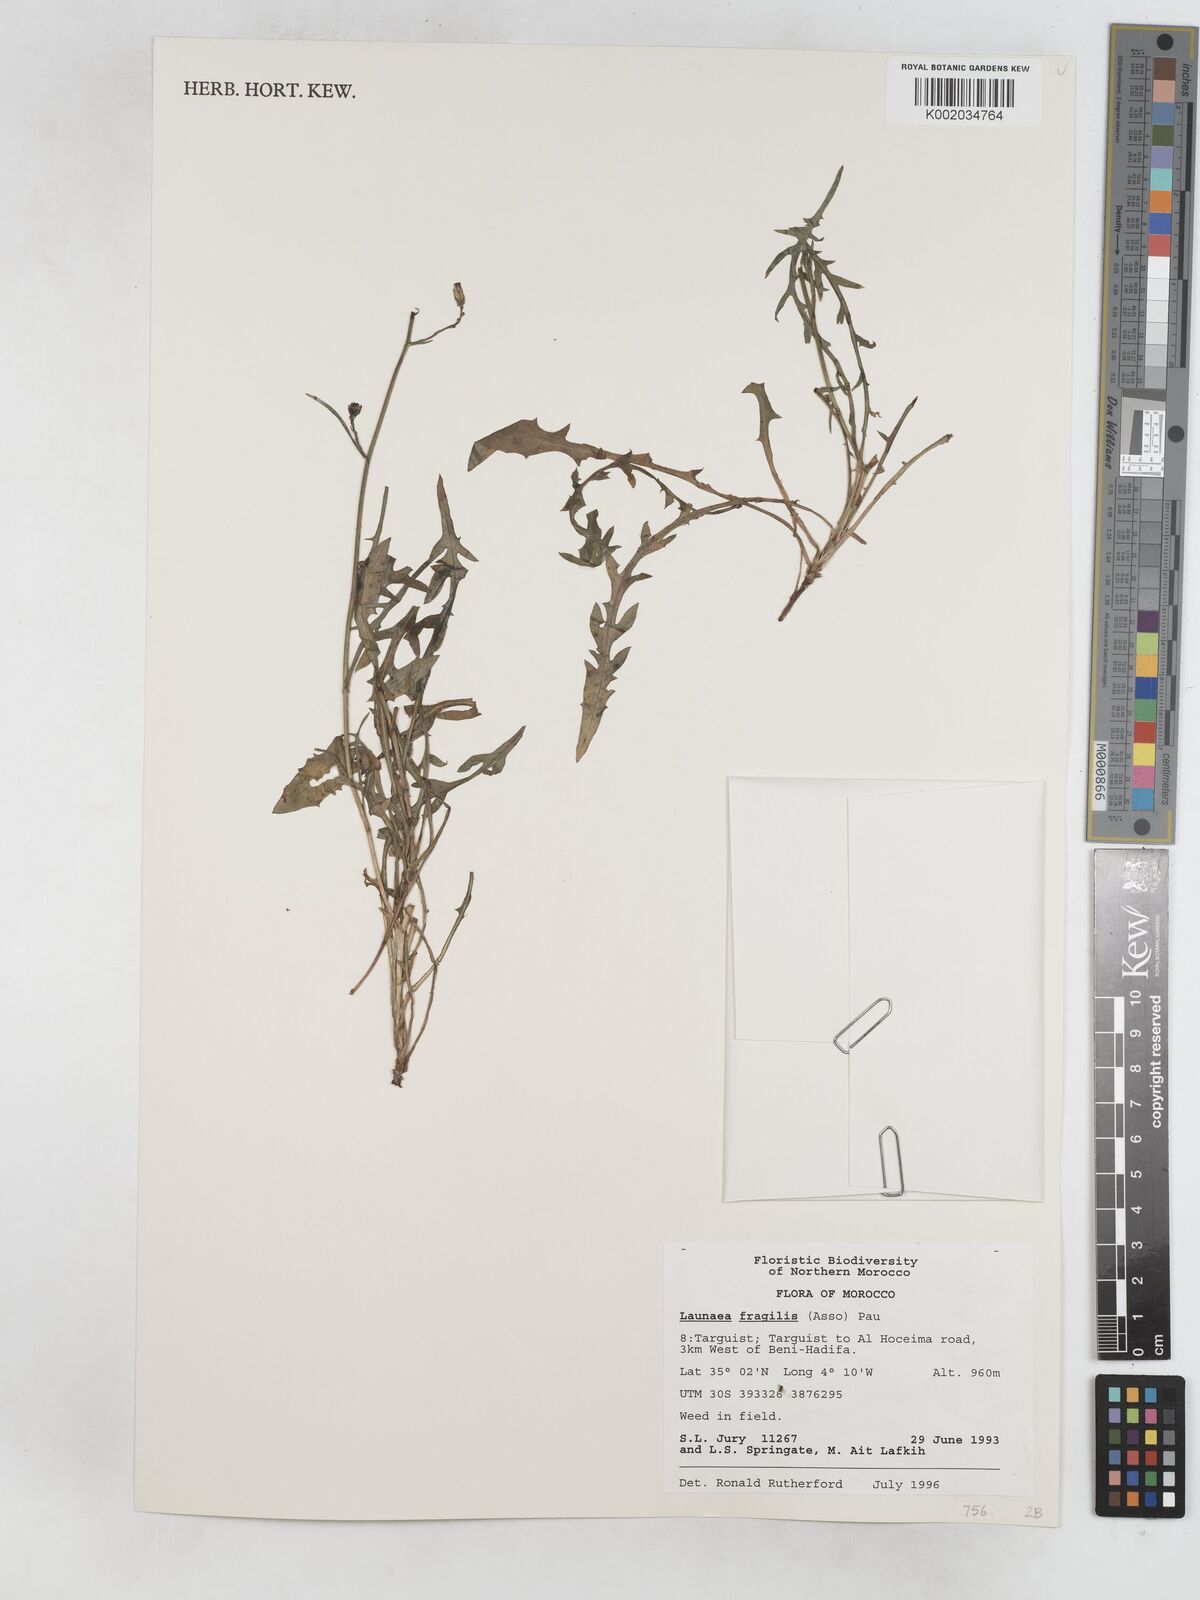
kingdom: Plantae
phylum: Tracheophyta
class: Magnoliopsida
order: Asterales
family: Asteraceae
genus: Launaea
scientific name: Launaea fragilis
